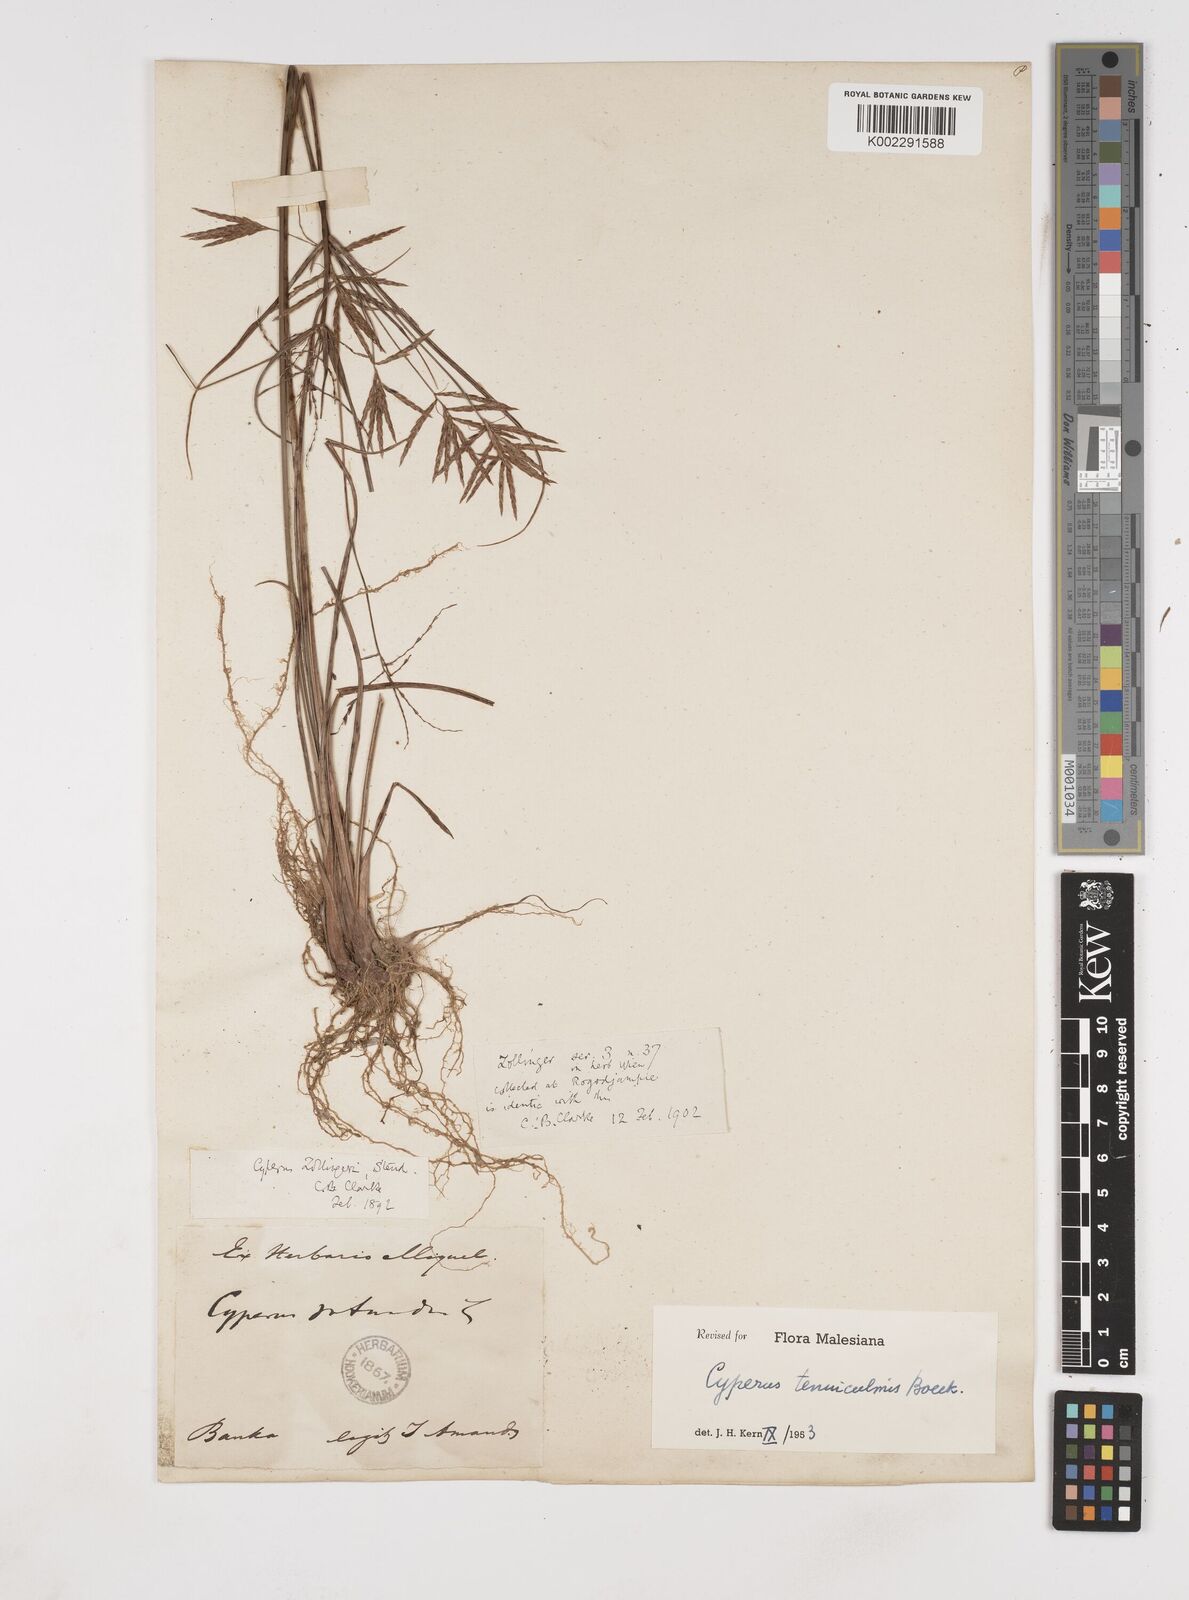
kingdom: Plantae
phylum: Tracheophyta
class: Liliopsida
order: Poales
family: Cyperaceae
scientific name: Cyperaceae
